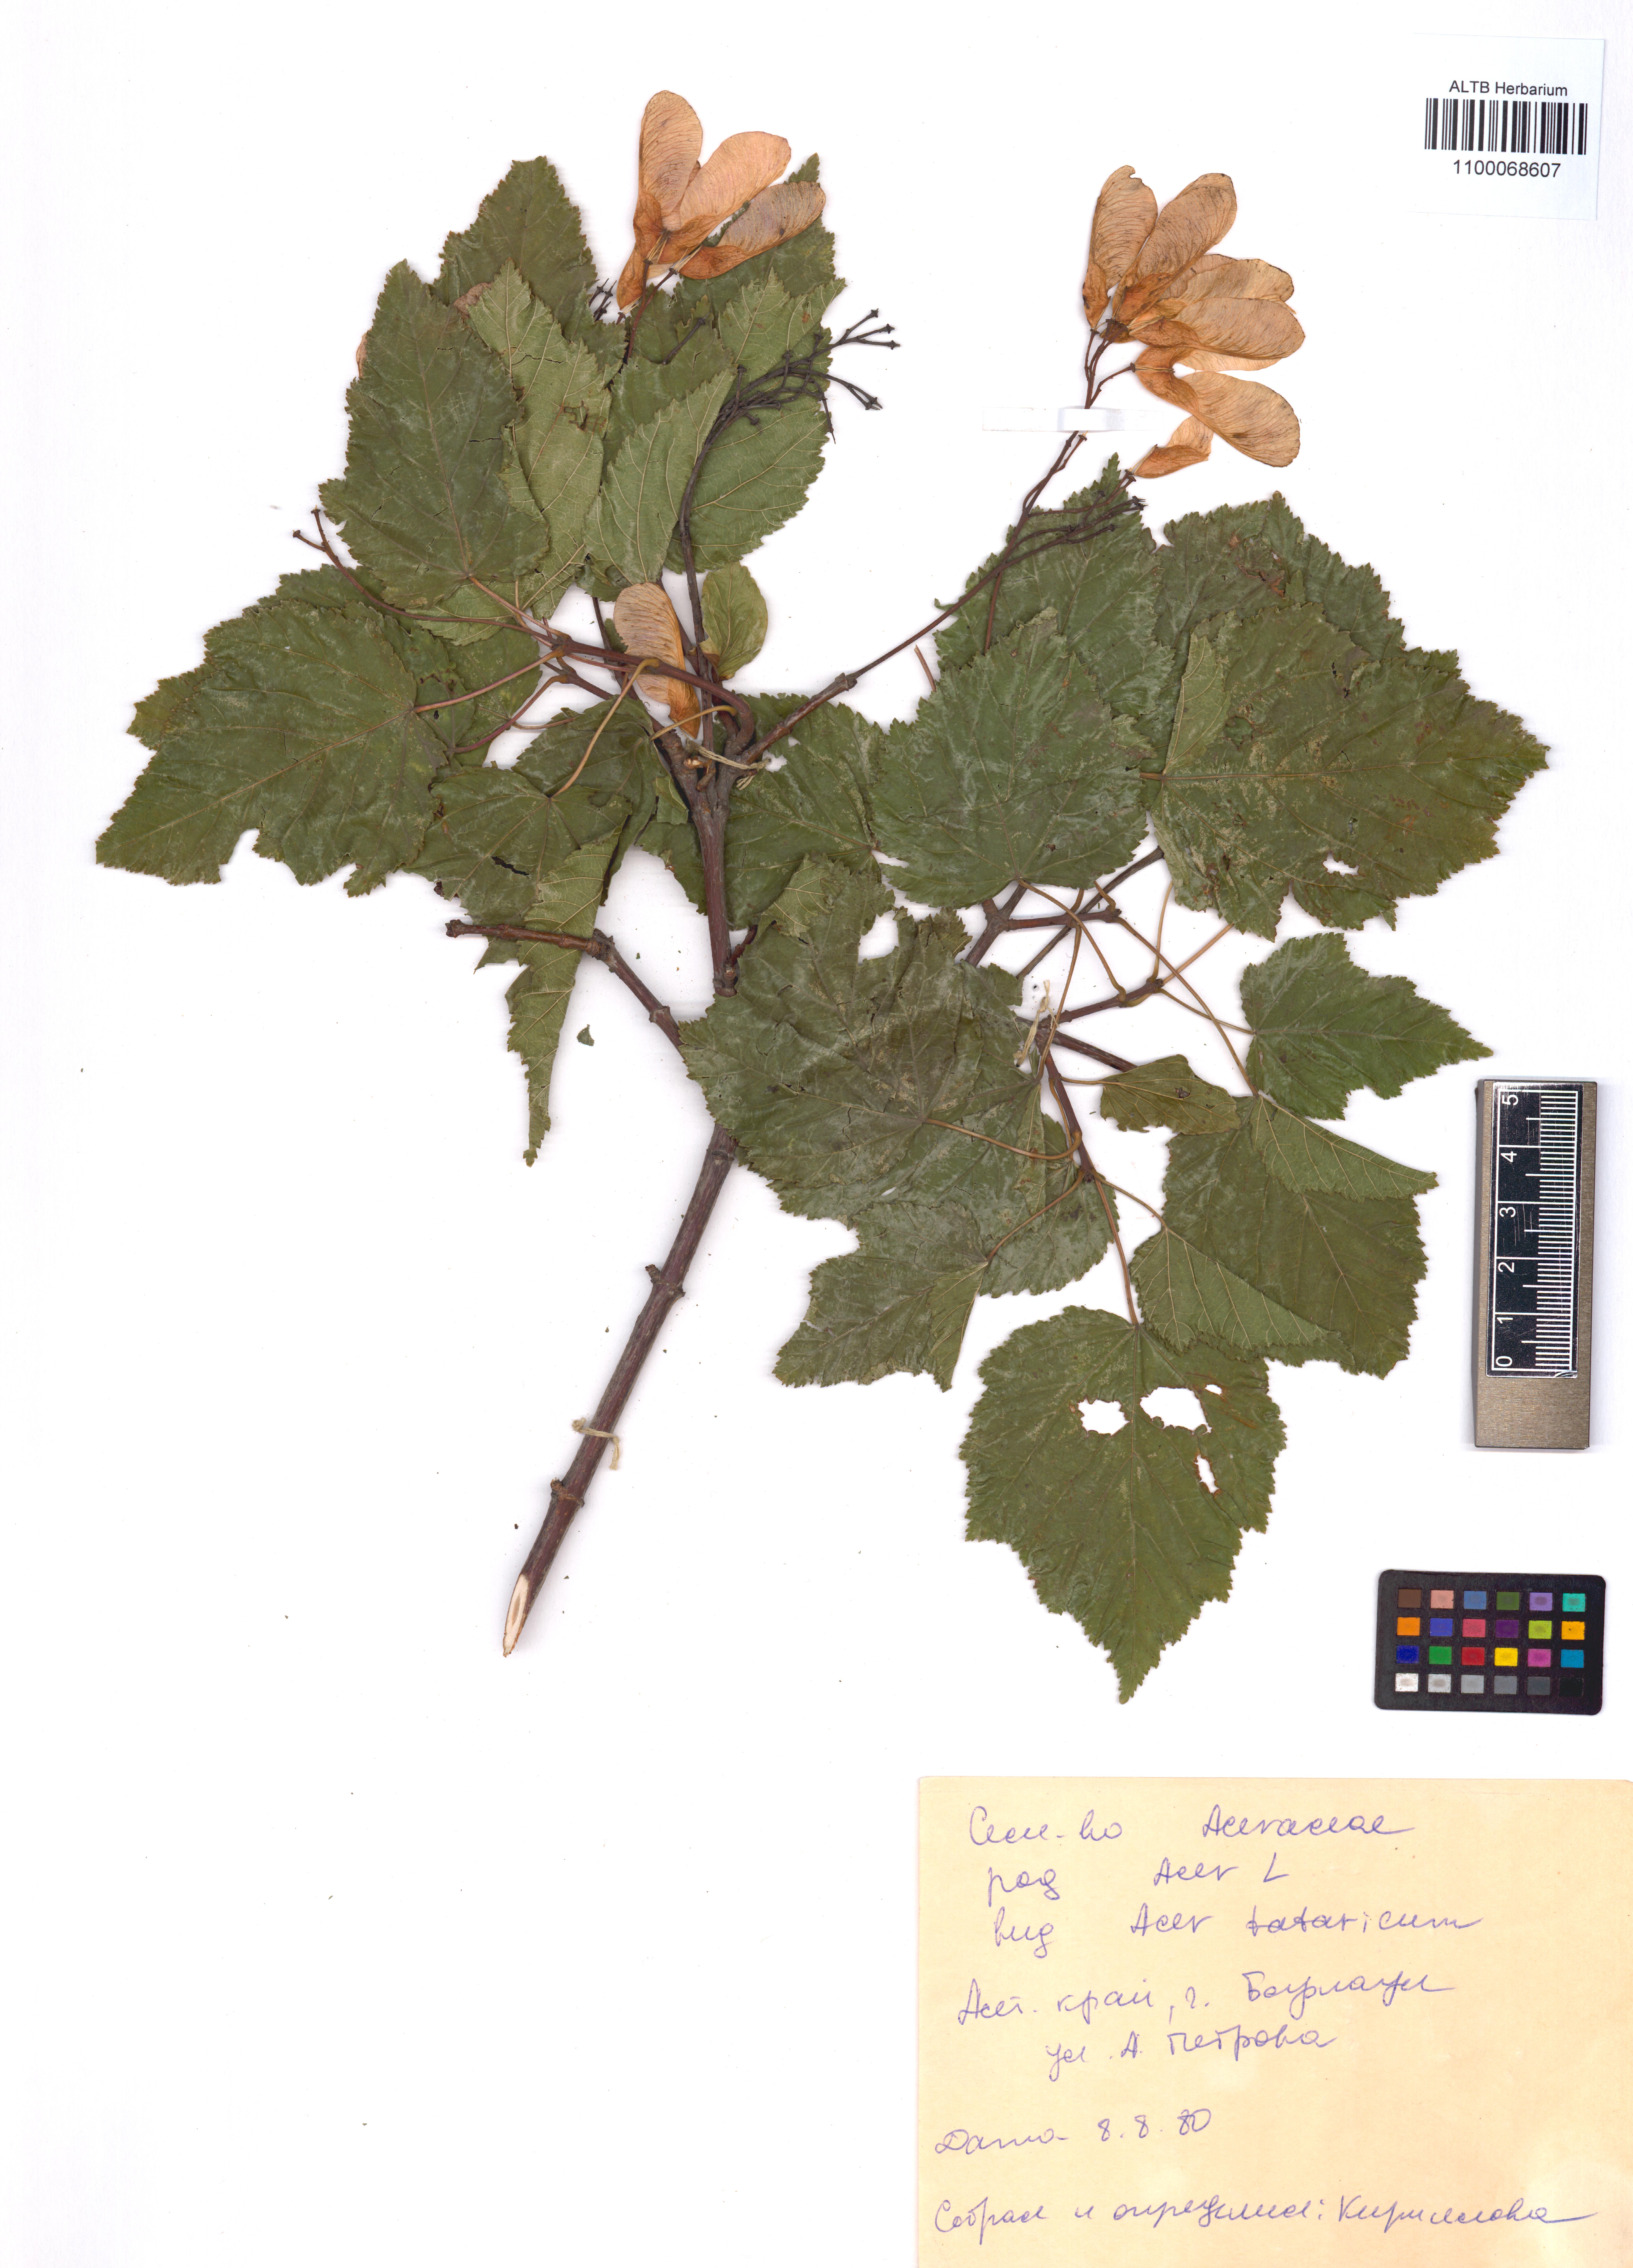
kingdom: Plantae
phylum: Tracheophyta
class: Magnoliopsida
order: Sapindales
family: Sapindaceae
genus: Acer
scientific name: Acer tataricum
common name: Tartar maple
